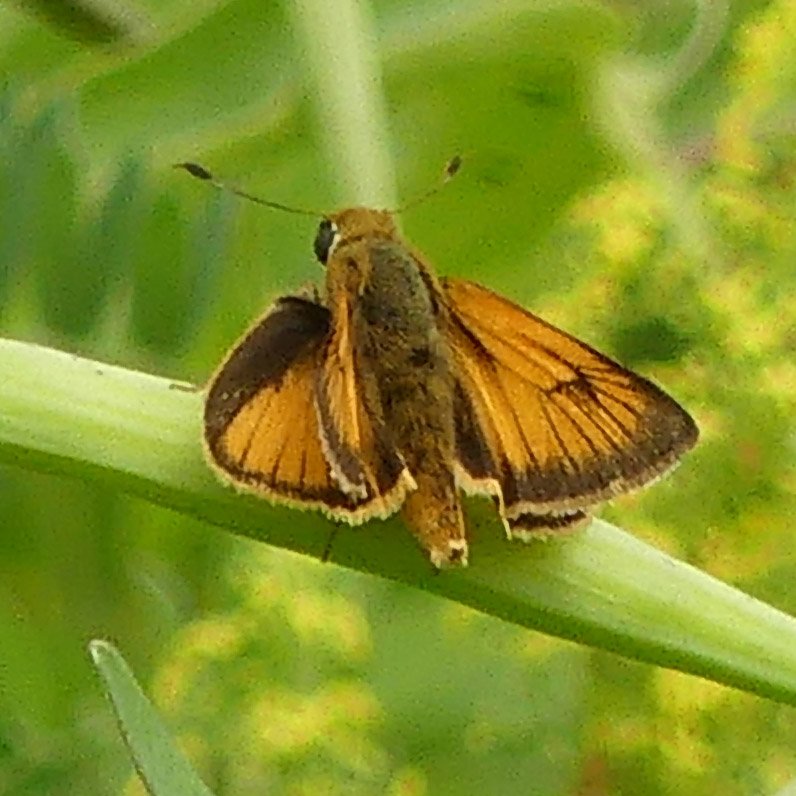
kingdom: Animalia
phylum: Arthropoda
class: Insecta
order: Lepidoptera
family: Hesperiidae
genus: Atrytone
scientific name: Atrytone delaware
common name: Delaware Skipper
